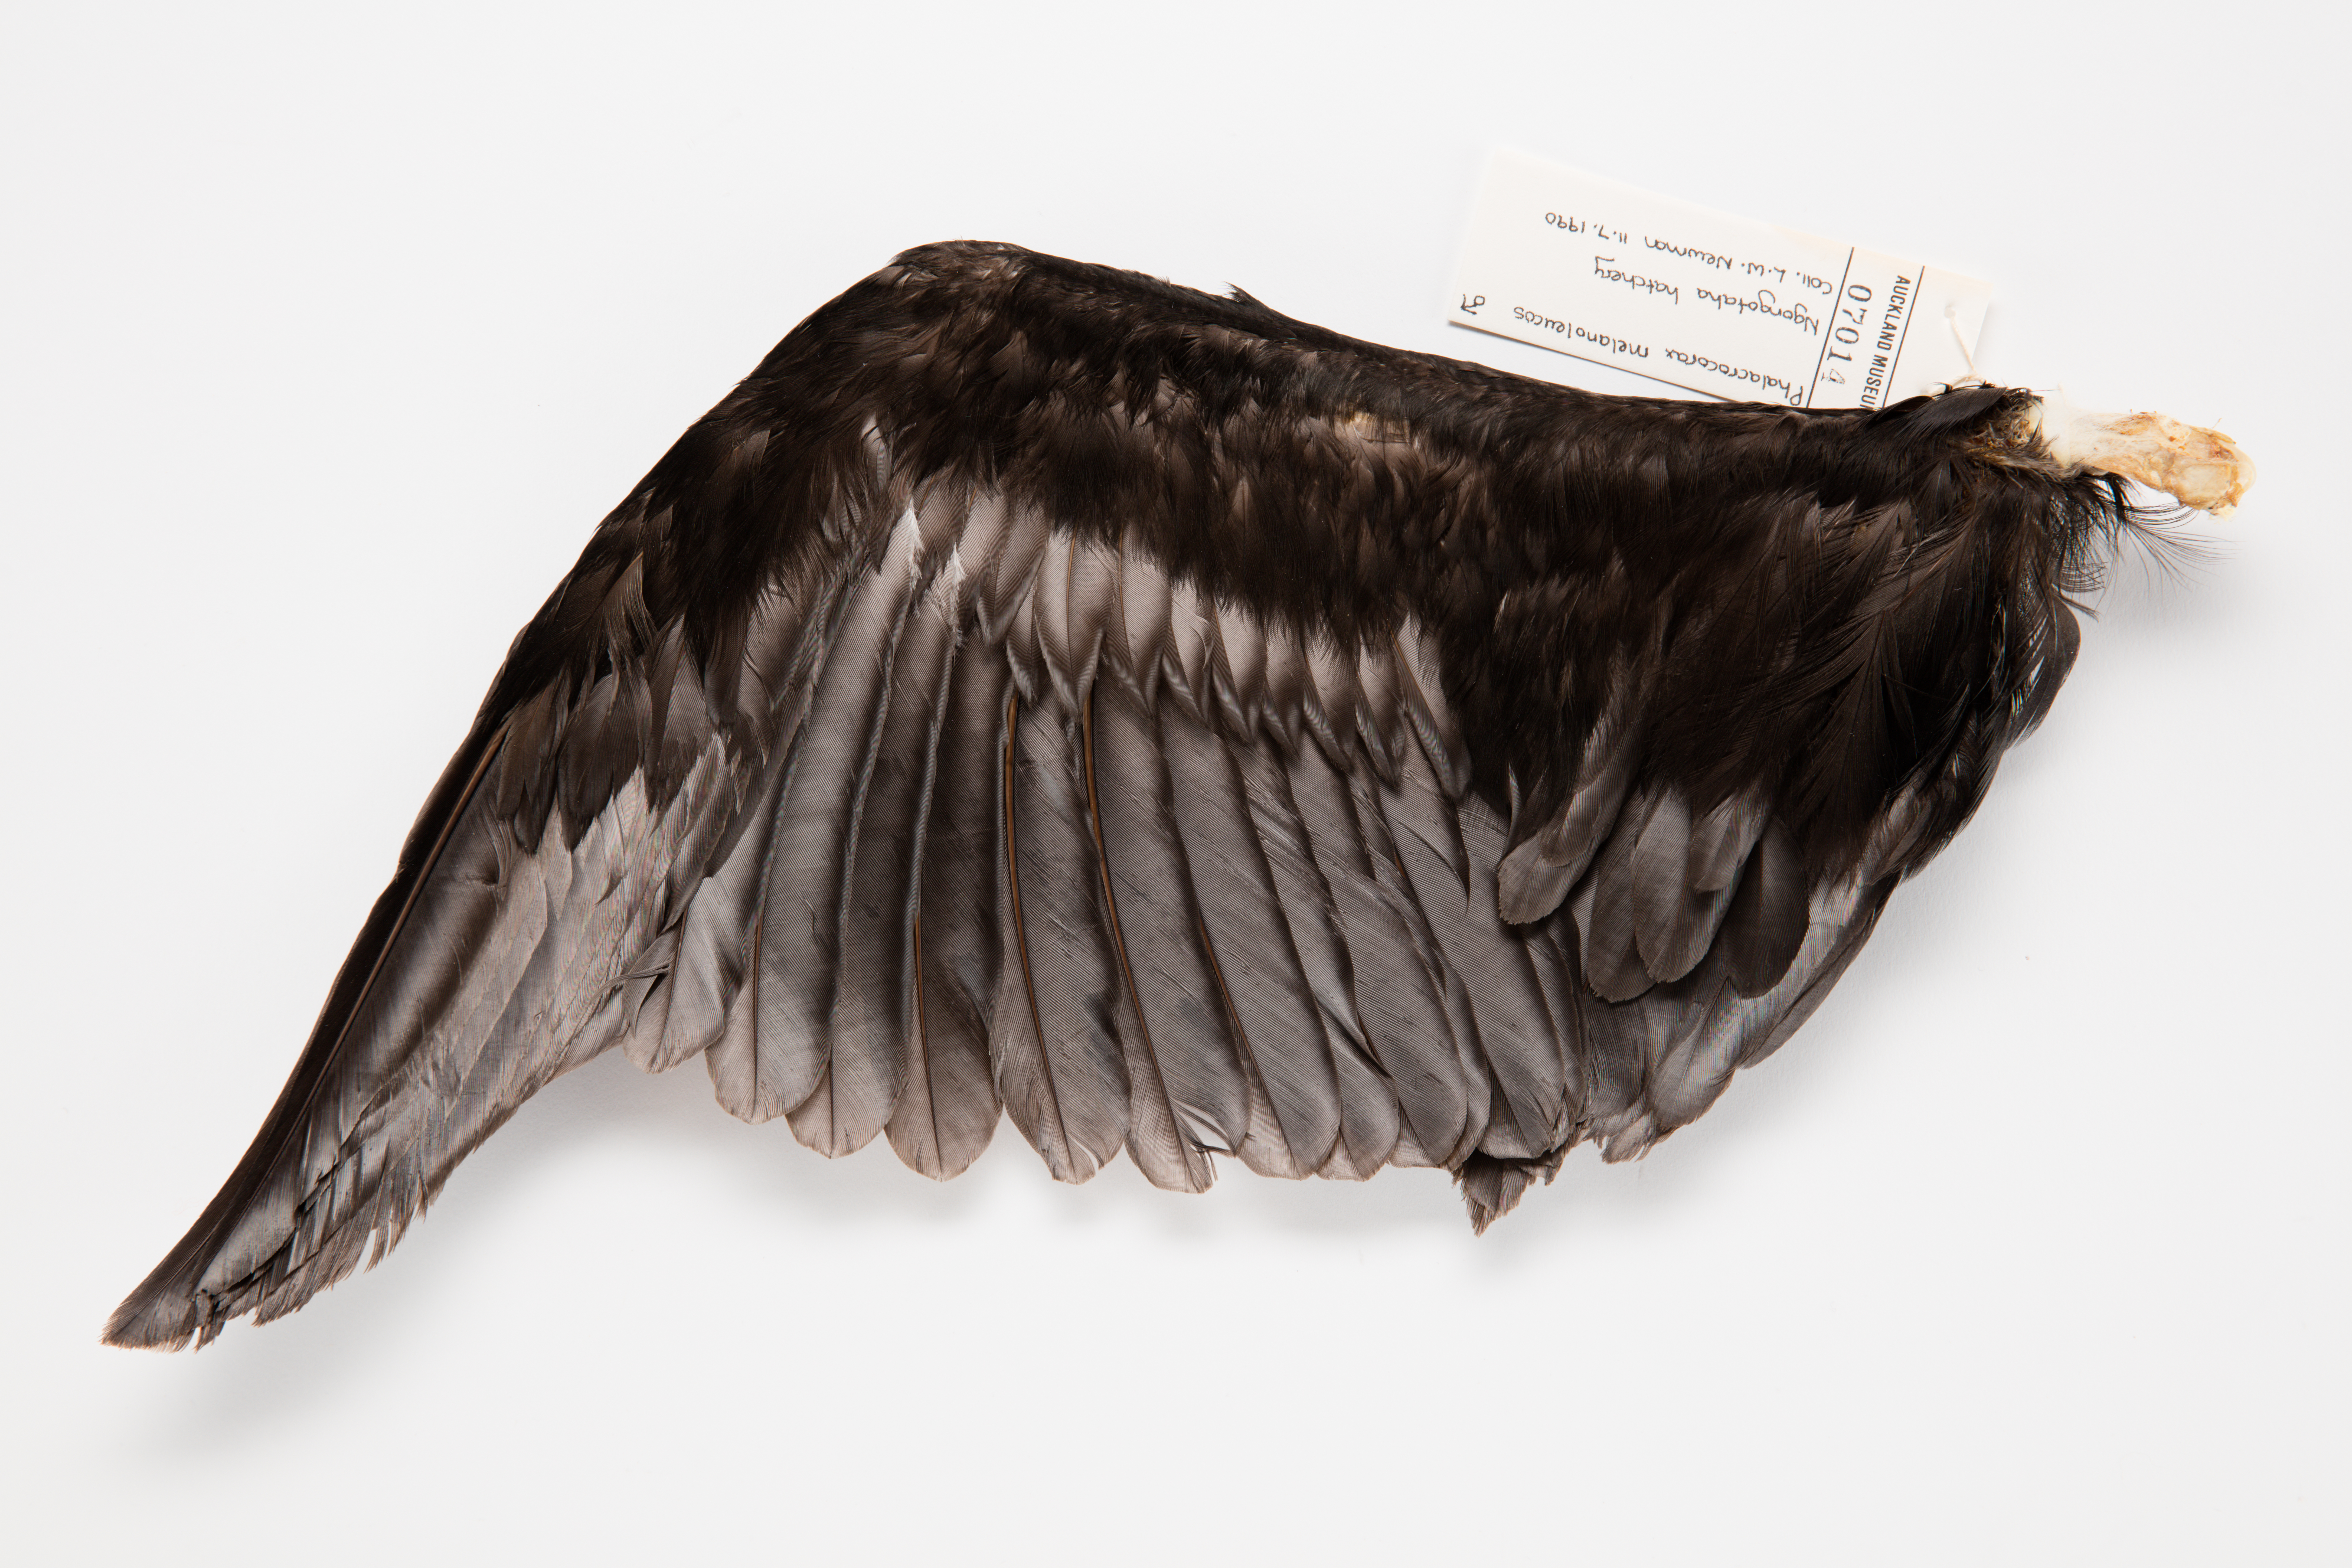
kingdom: Animalia
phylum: Chordata
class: Aves
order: Suliformes
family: Phalacrocoracidae
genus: Microcarbo
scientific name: Microcarbo melanoleucos
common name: Little pied cormorant
